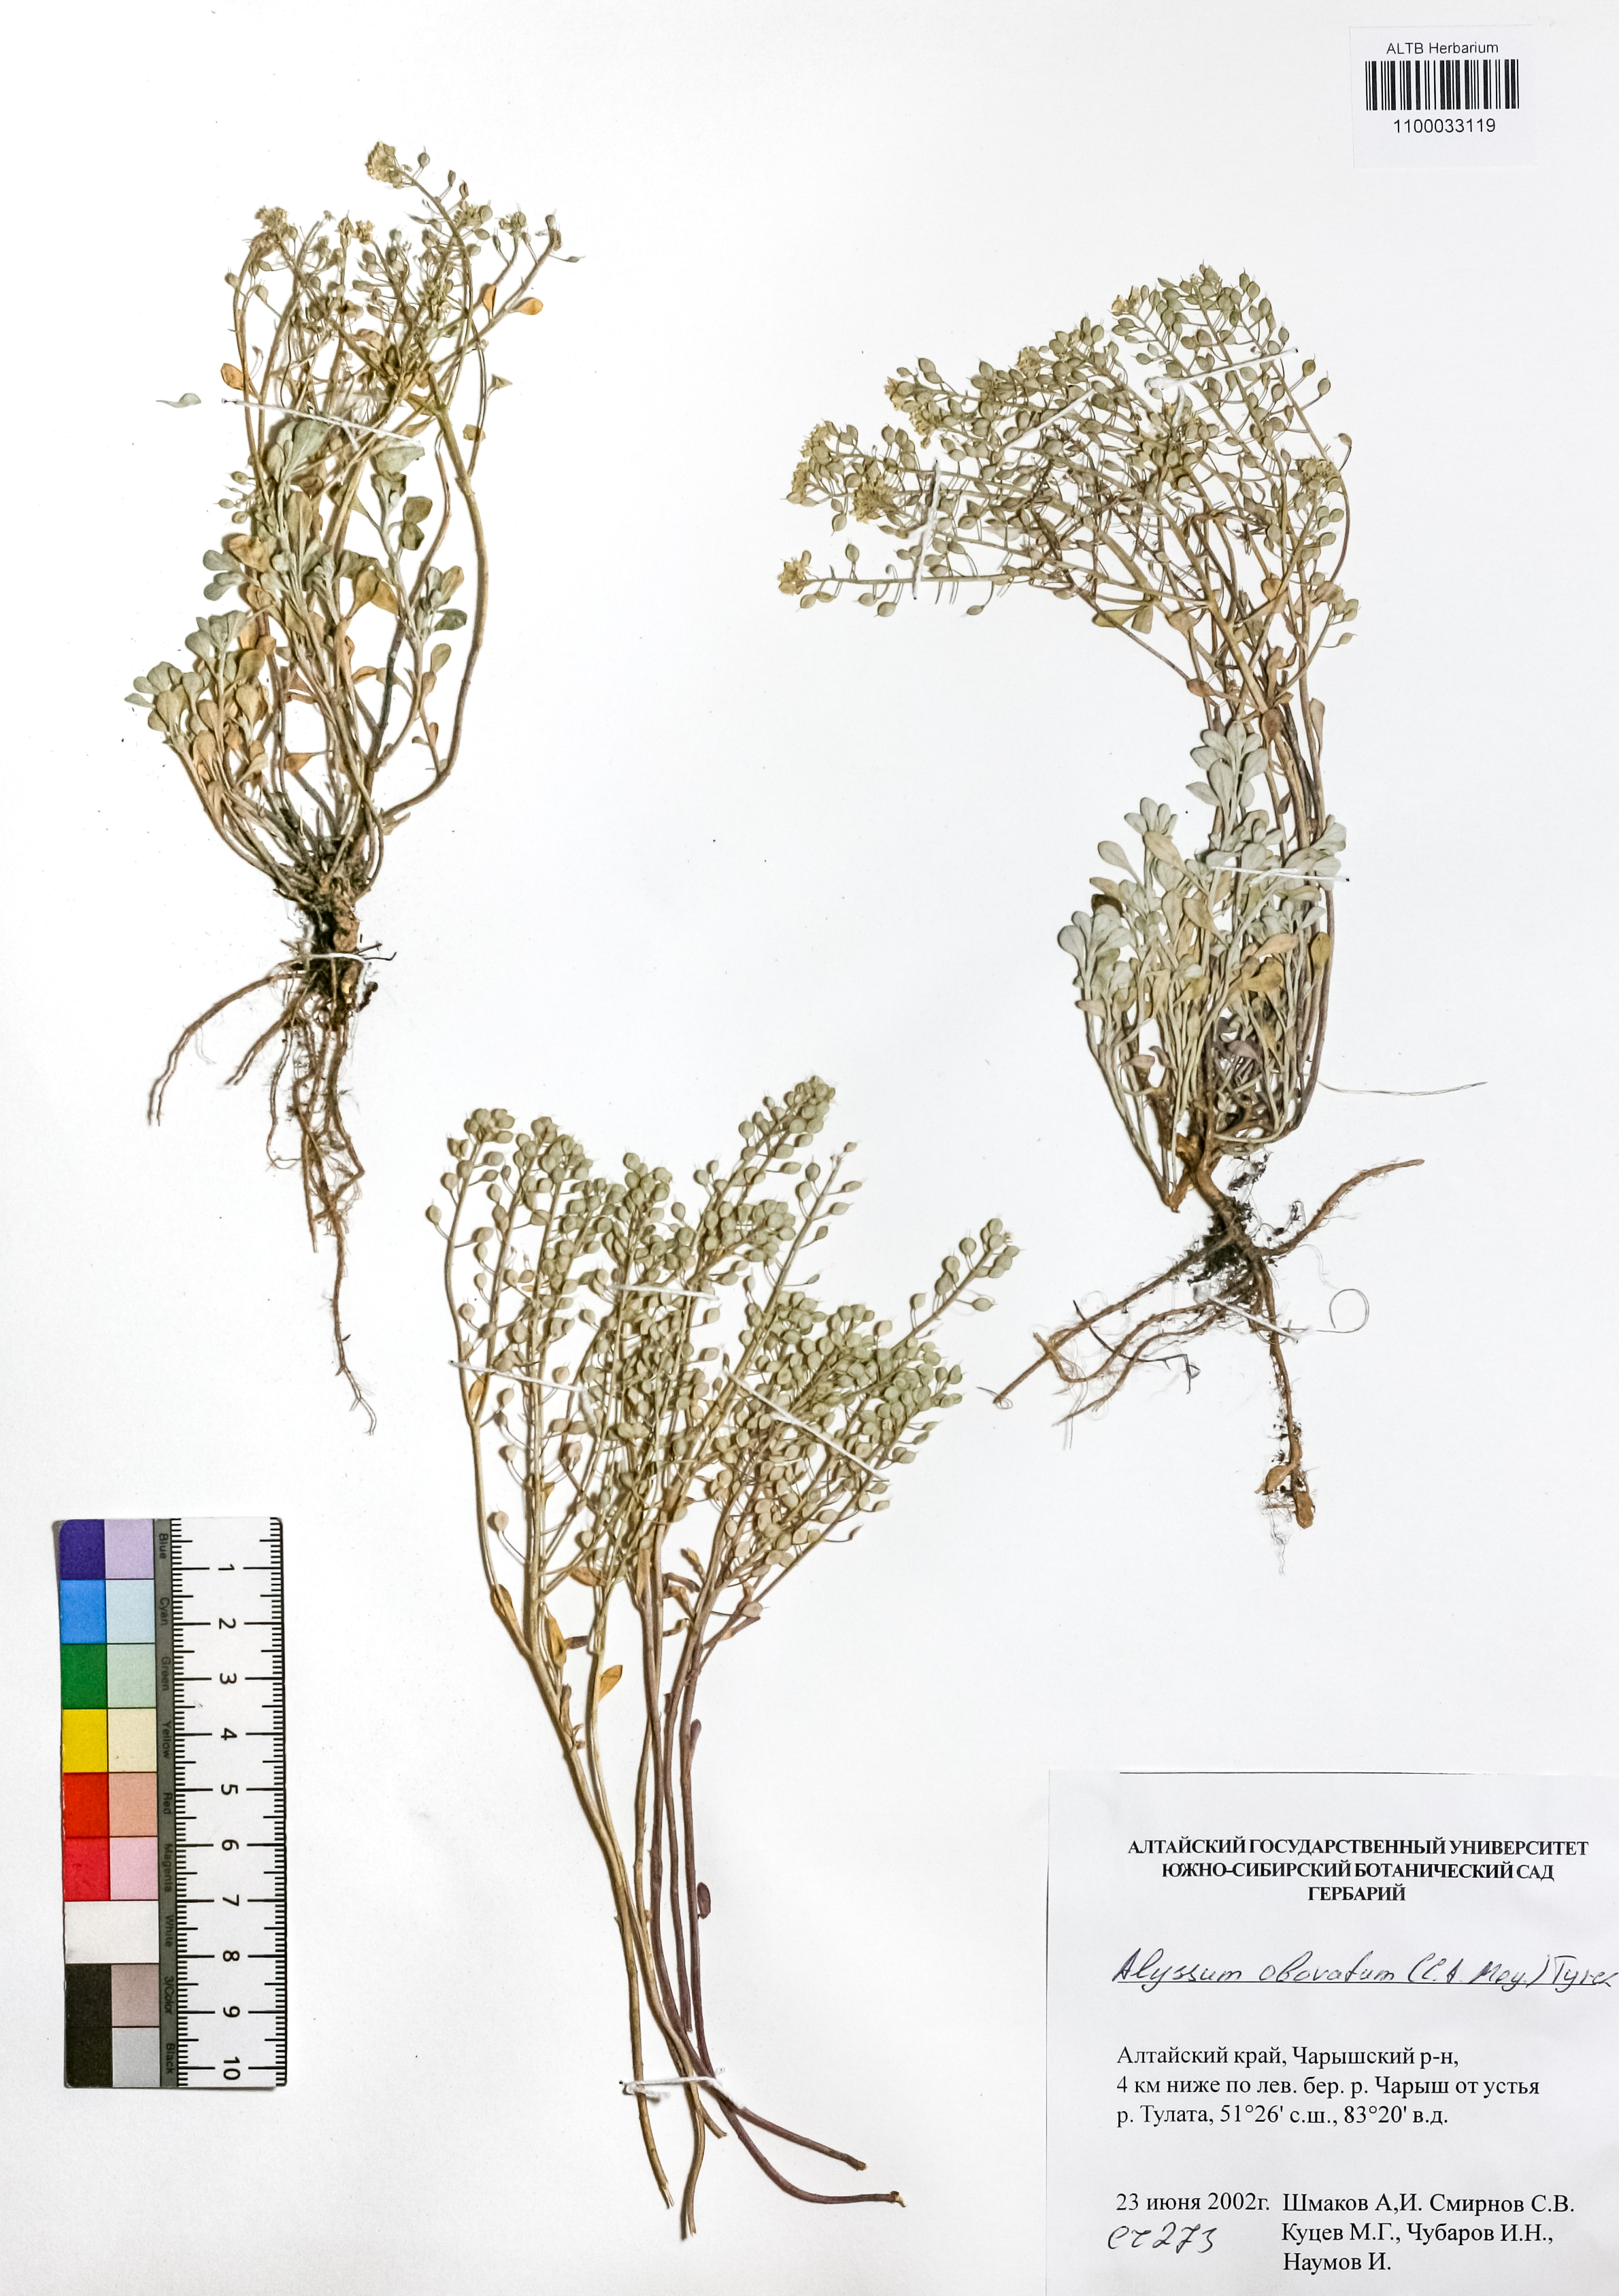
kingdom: Plantae
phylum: Tracheophyta
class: Magnoliopsida
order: Brassicales
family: Brassicaceae
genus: Odontarrhena
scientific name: Odontarrhena obovata
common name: American alyssum
